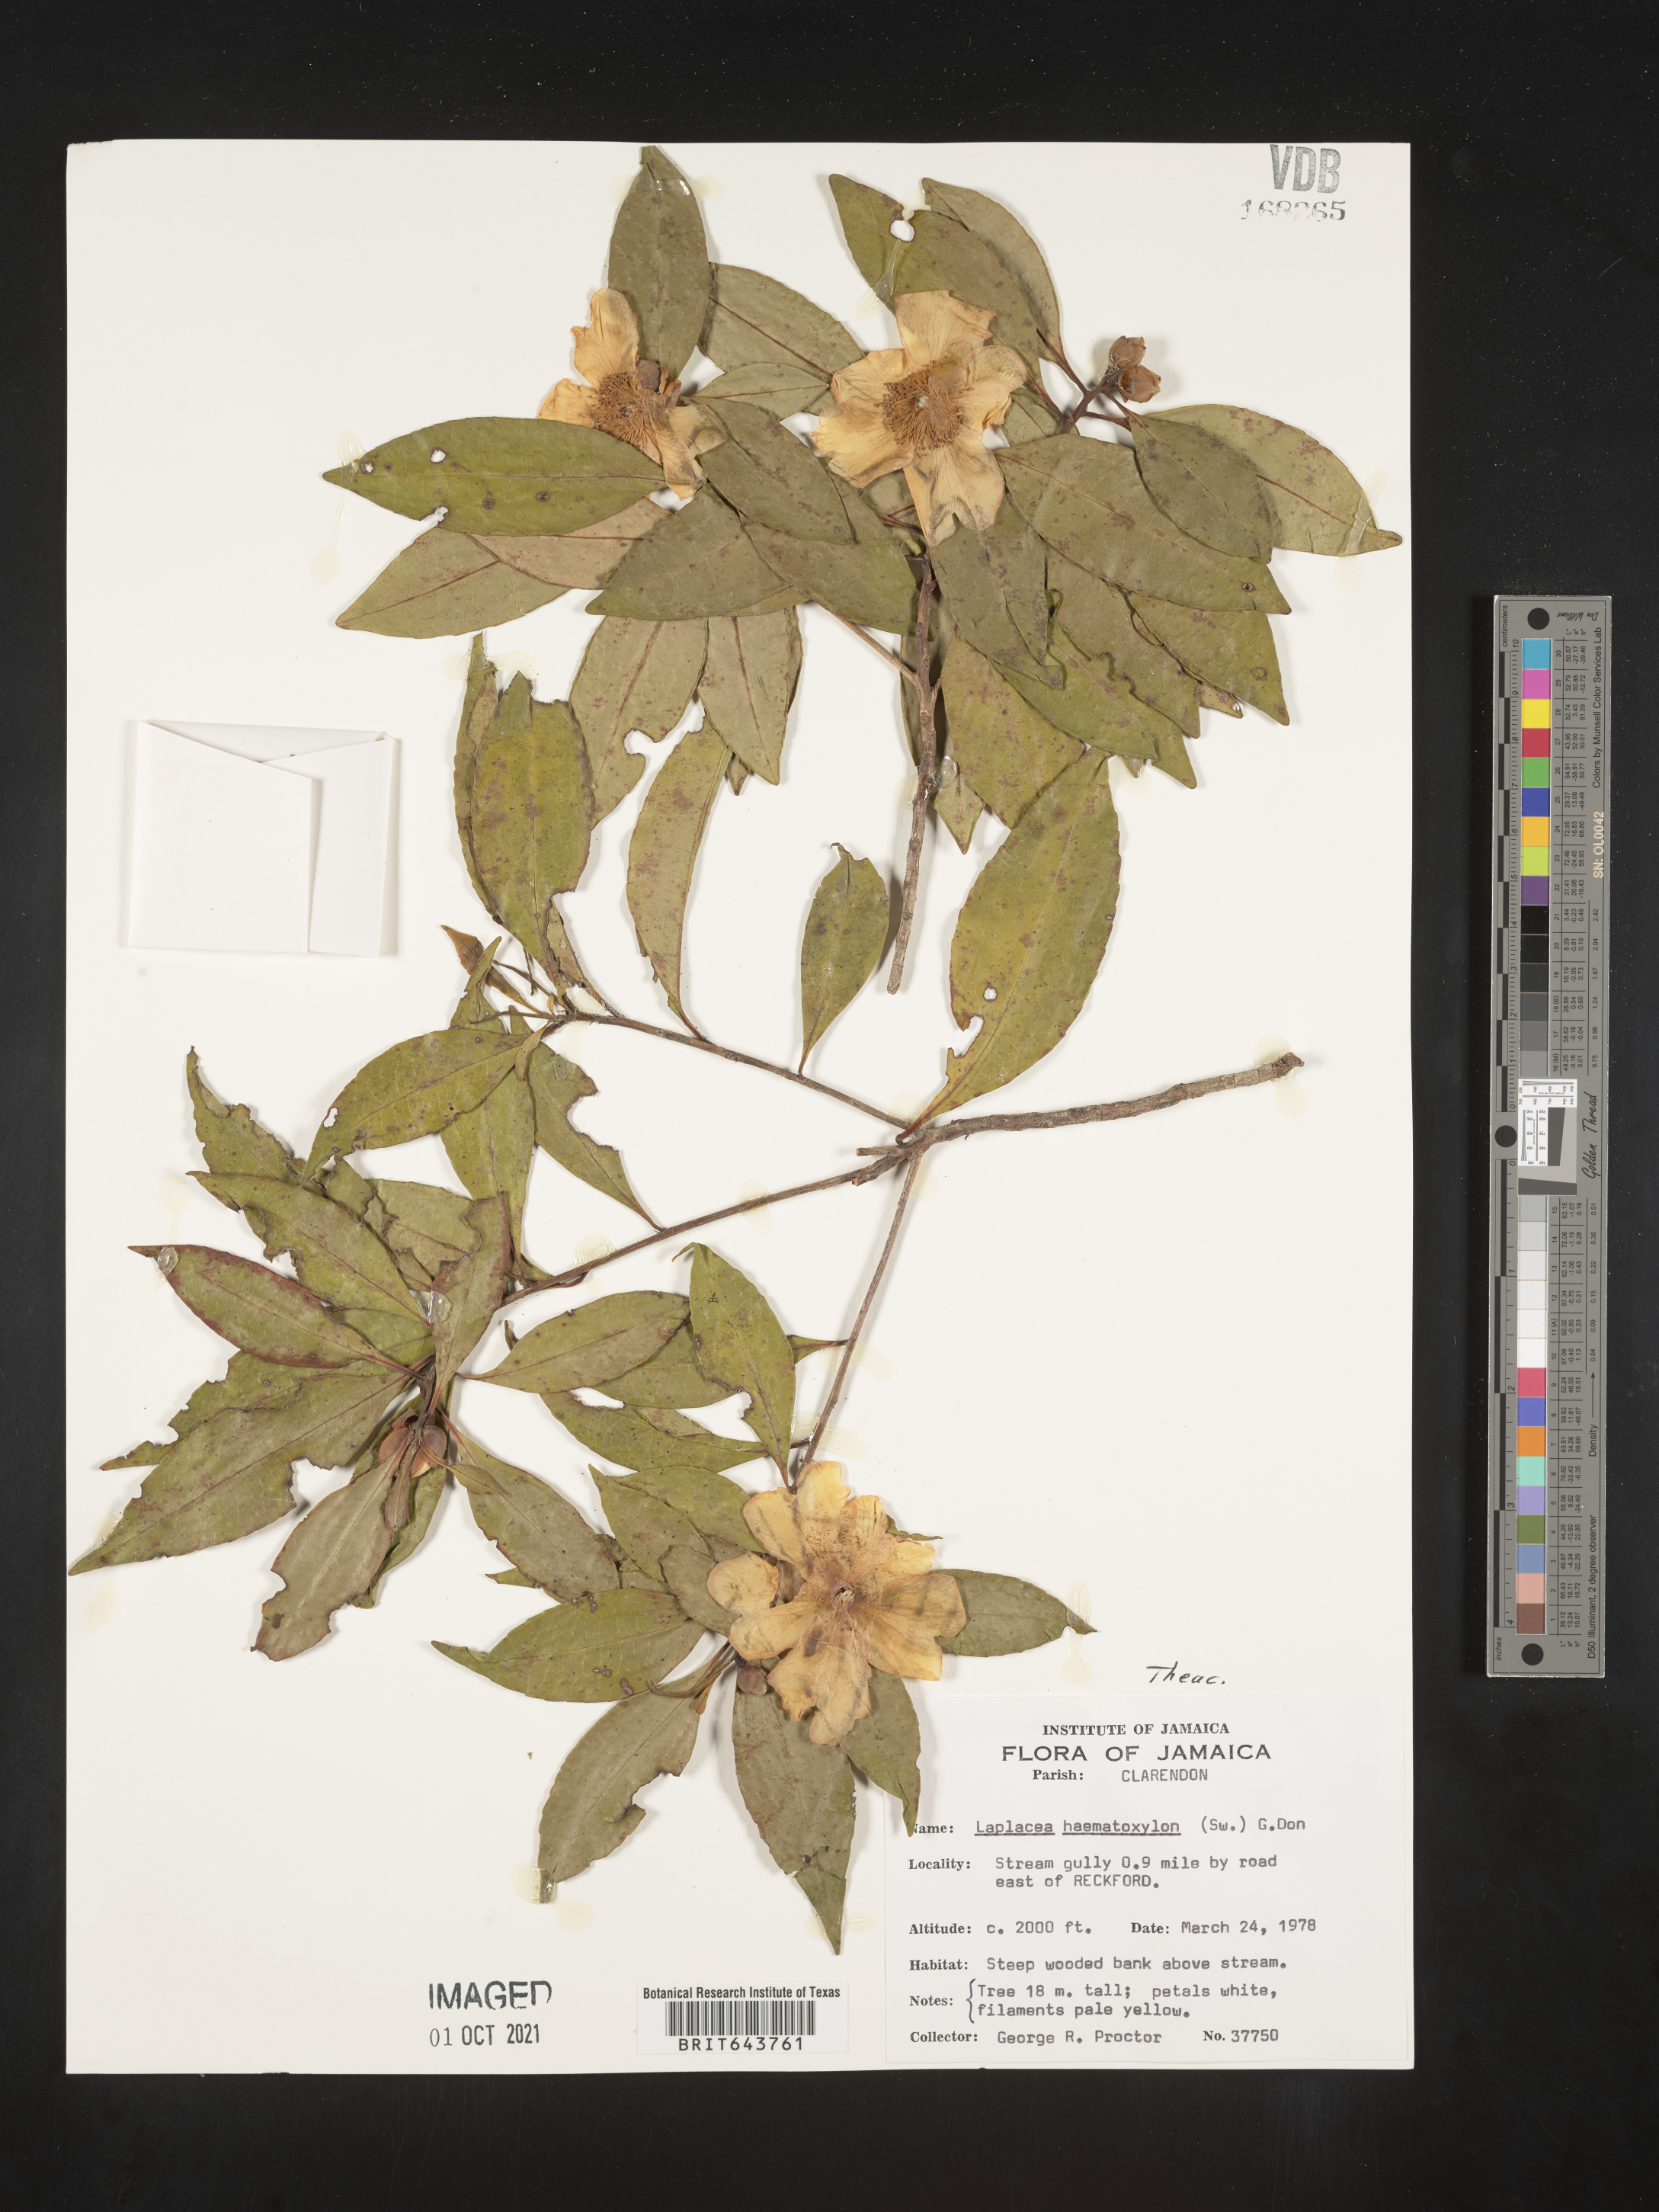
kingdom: Plantae
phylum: Tracheophyta
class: Magnoliopsida
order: Ericales
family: Theaceae
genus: Gordonia
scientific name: Gordonia
